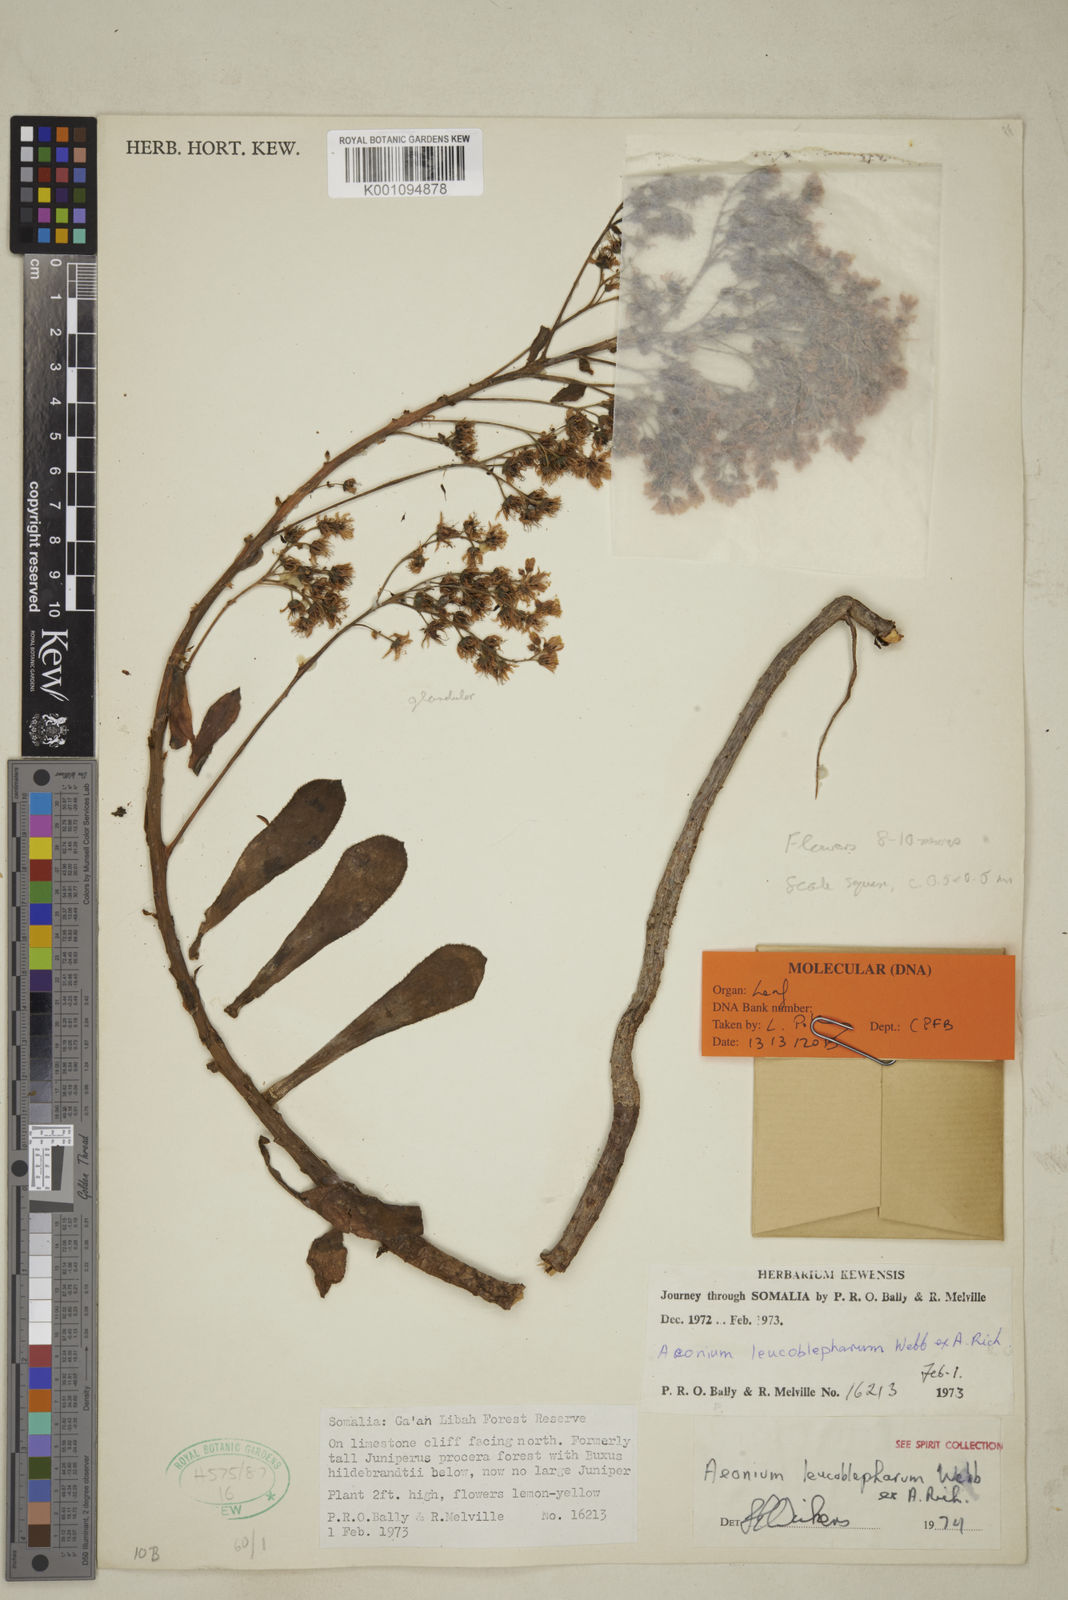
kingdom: Plantae
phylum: Tracheophyta
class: Magnoliopsida
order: Saxifragales
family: Crassulaceae
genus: Aeonium
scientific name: Aeonium leucoblepharum
